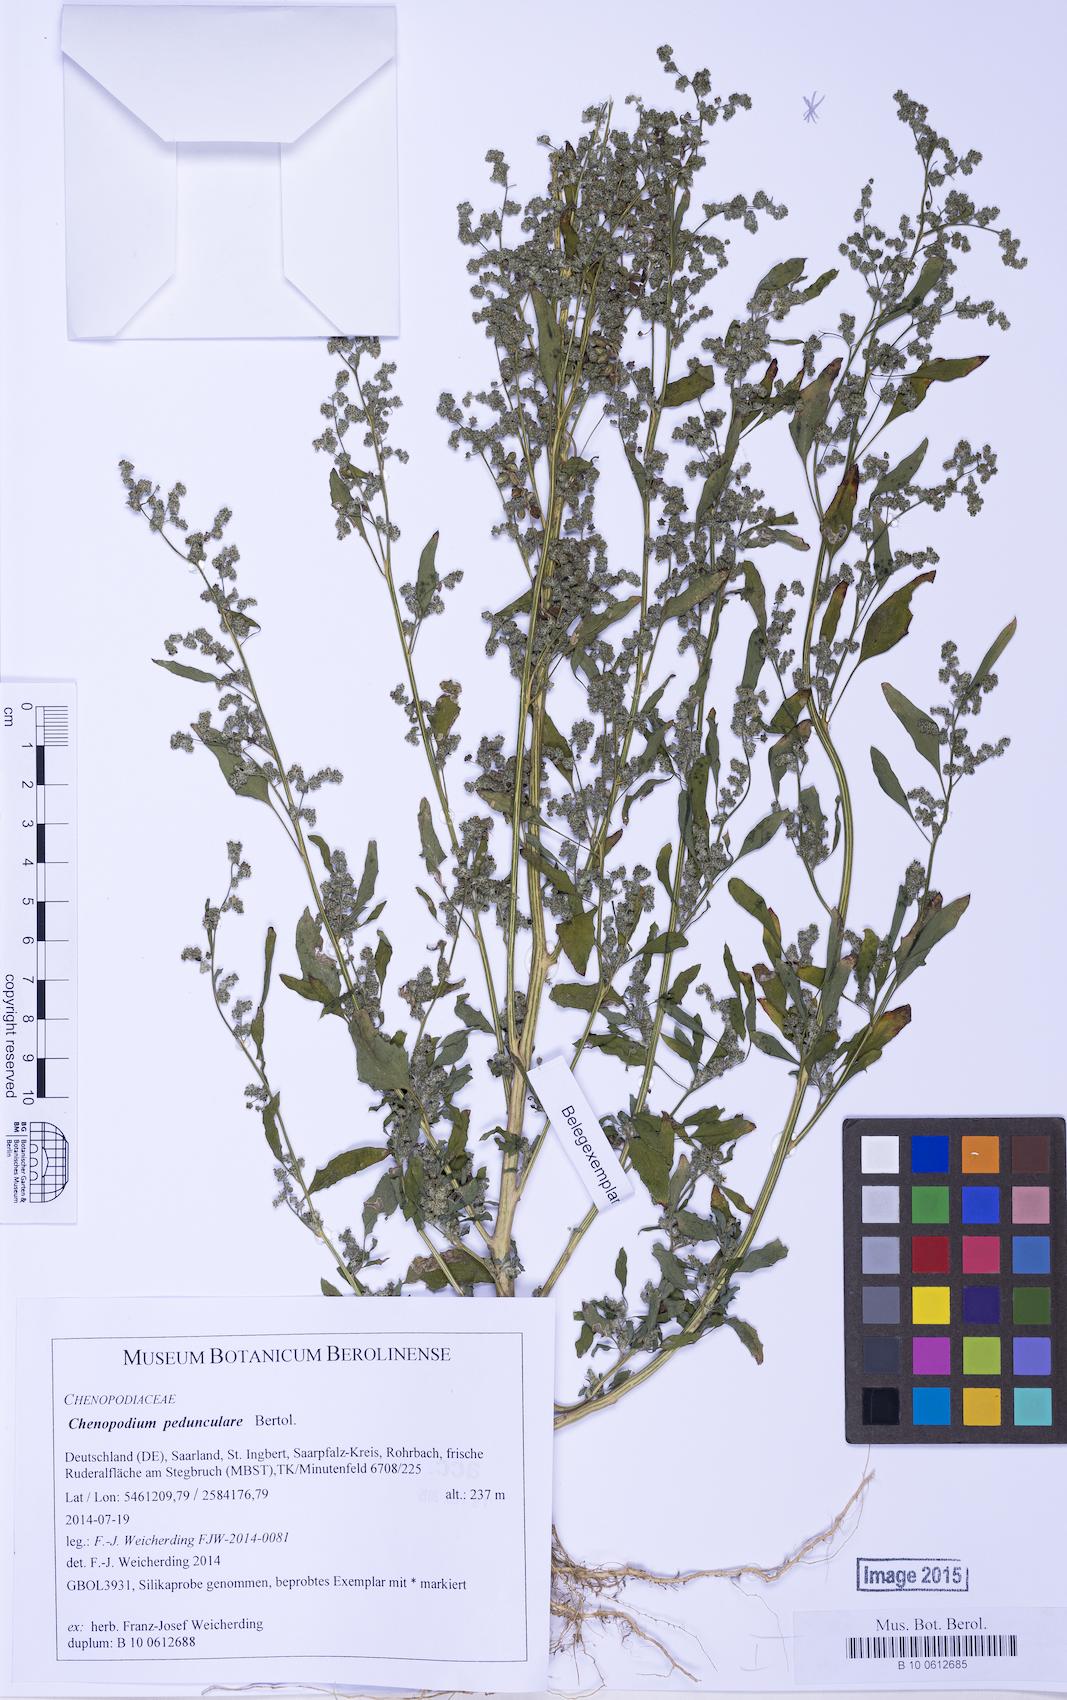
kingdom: Plantae
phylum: Tracheophyta
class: Magnoliopsida
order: Caryophyllales
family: Amaranthaceae
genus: Chenopodium
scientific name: Chenopodium album
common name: Fat-hen
